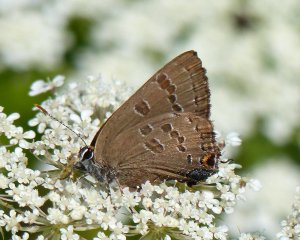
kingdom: Animalia
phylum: Arthropoda
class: Insecta
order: Lepidoptera
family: Lycaenidae
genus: Strymon
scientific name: Strymon caryaevorus
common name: Hickory Hairstreak
